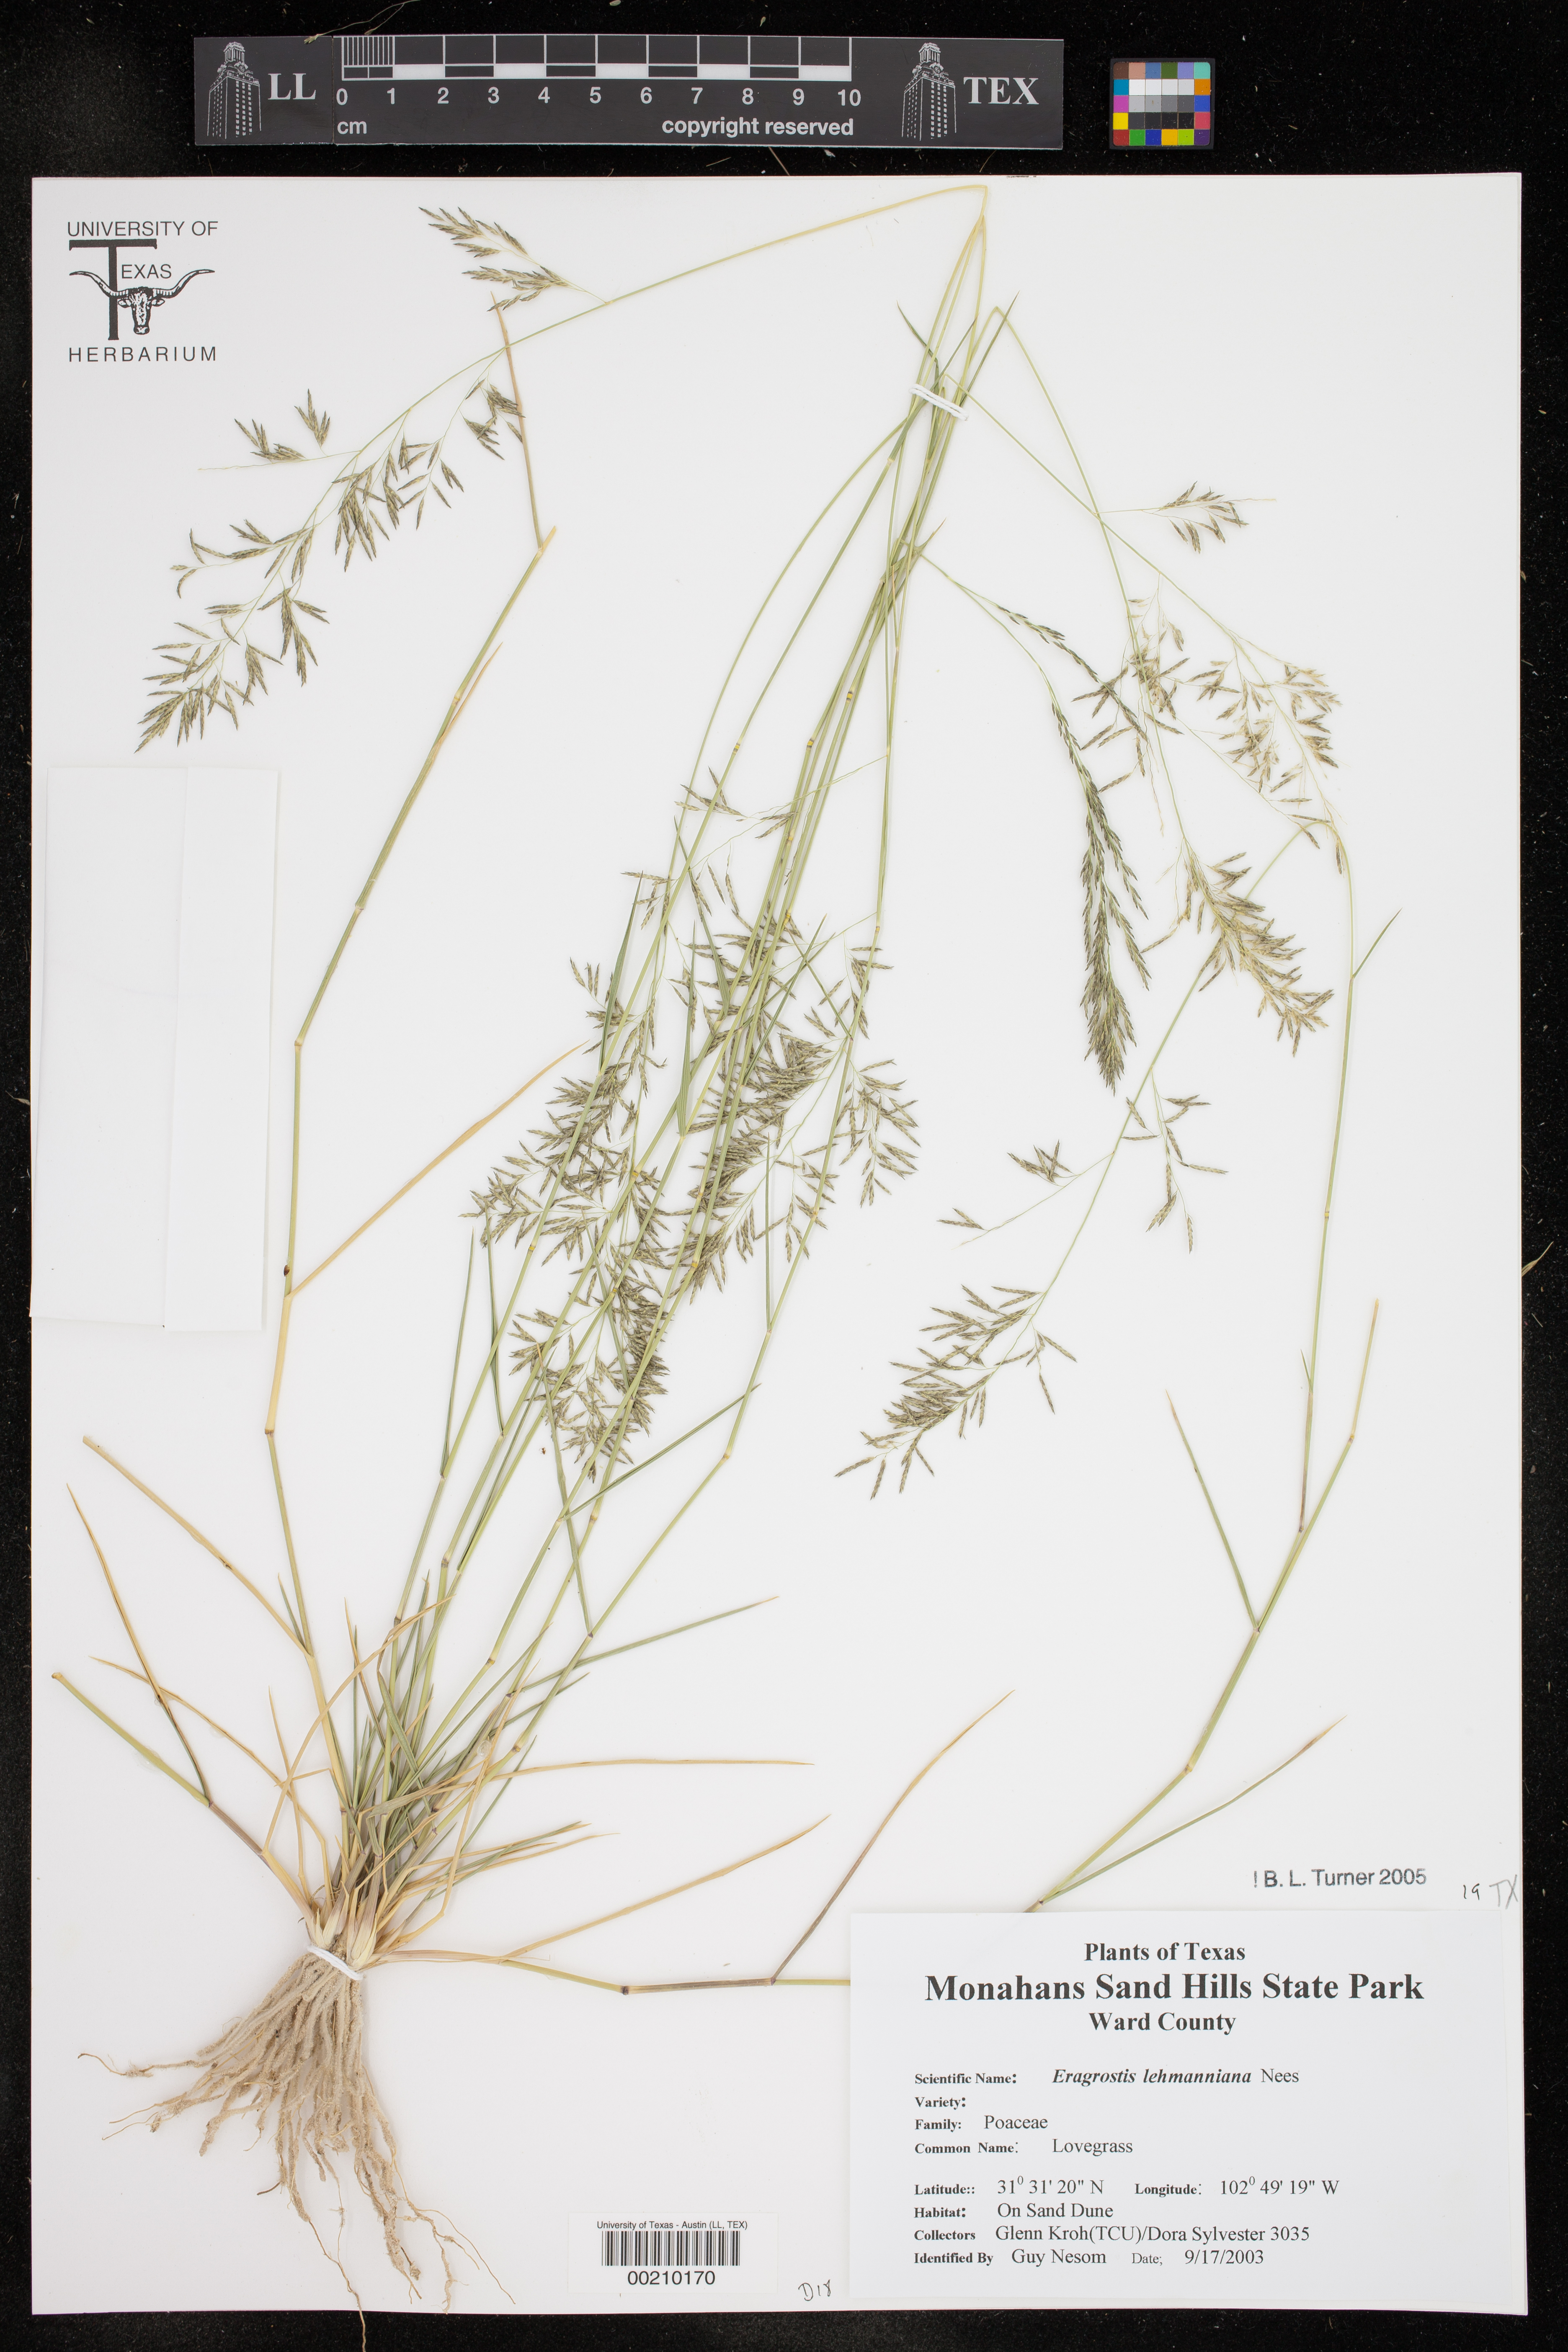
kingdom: Plantae
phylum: Tracheophyta
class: Liliopsida
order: Poales
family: Poaceae
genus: Eragrostis
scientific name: Eragrostis lehmanniana
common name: Lehmann lovegrass
